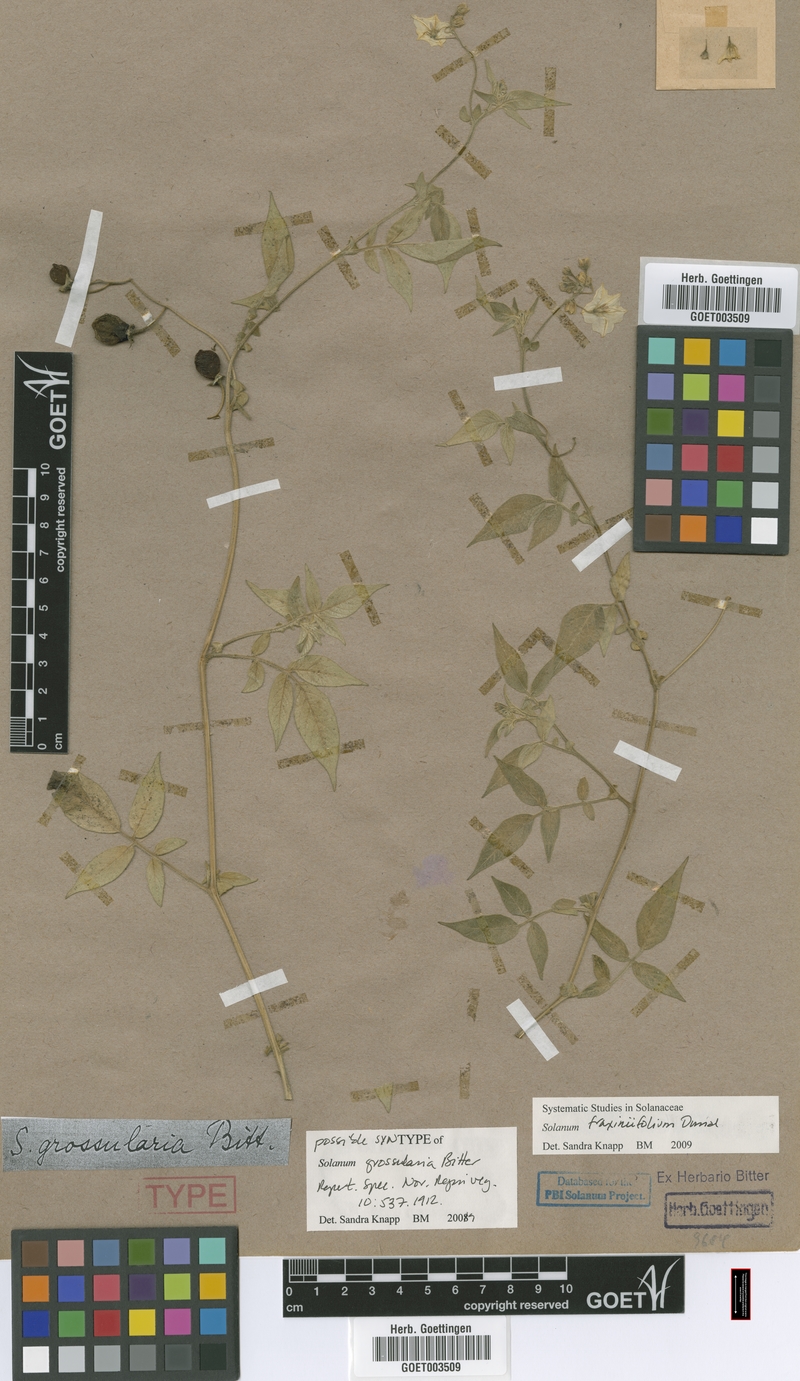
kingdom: Plantae
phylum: Tracheophyta
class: Magnoliopsida
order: Solanales
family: Solanaceae
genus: Solanum
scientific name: Solanum fraxinifolium
